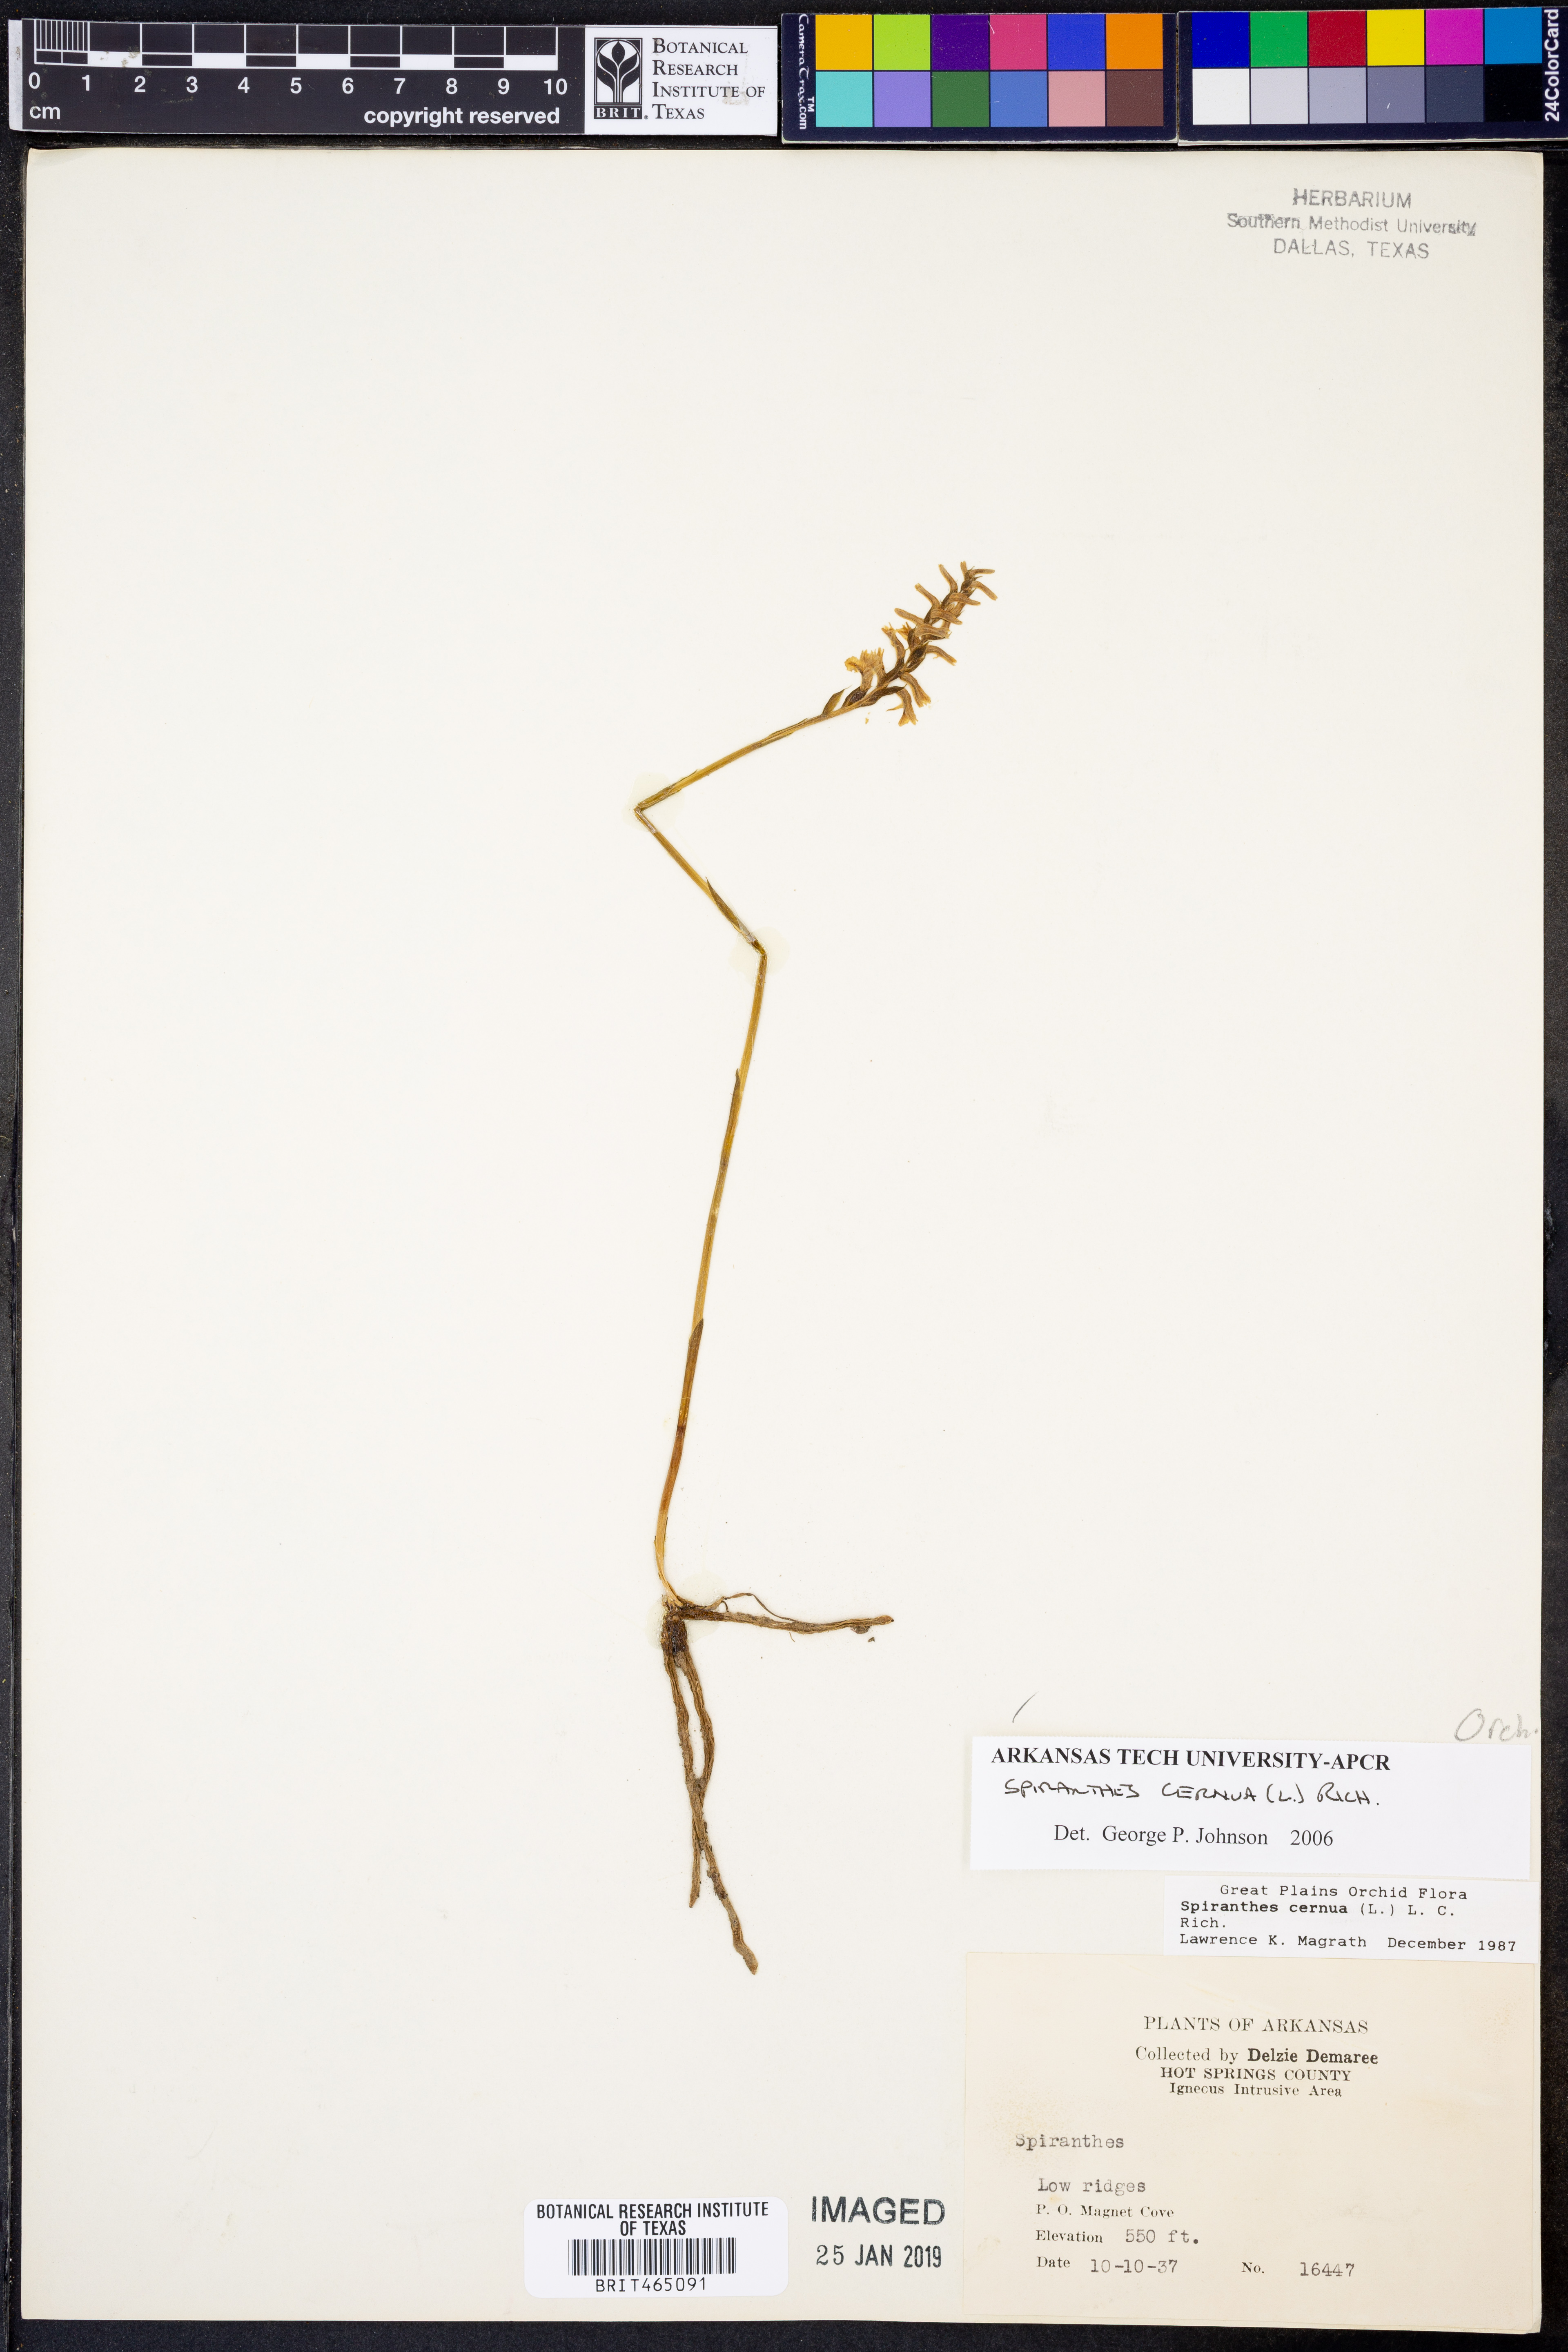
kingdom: Plantae
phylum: Tracheophyta
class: Liliopsida
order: Asparagales
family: Orchidaceae
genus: Spiranthes
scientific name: Spiranthes cernua
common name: Dropping ladies'-tresses
